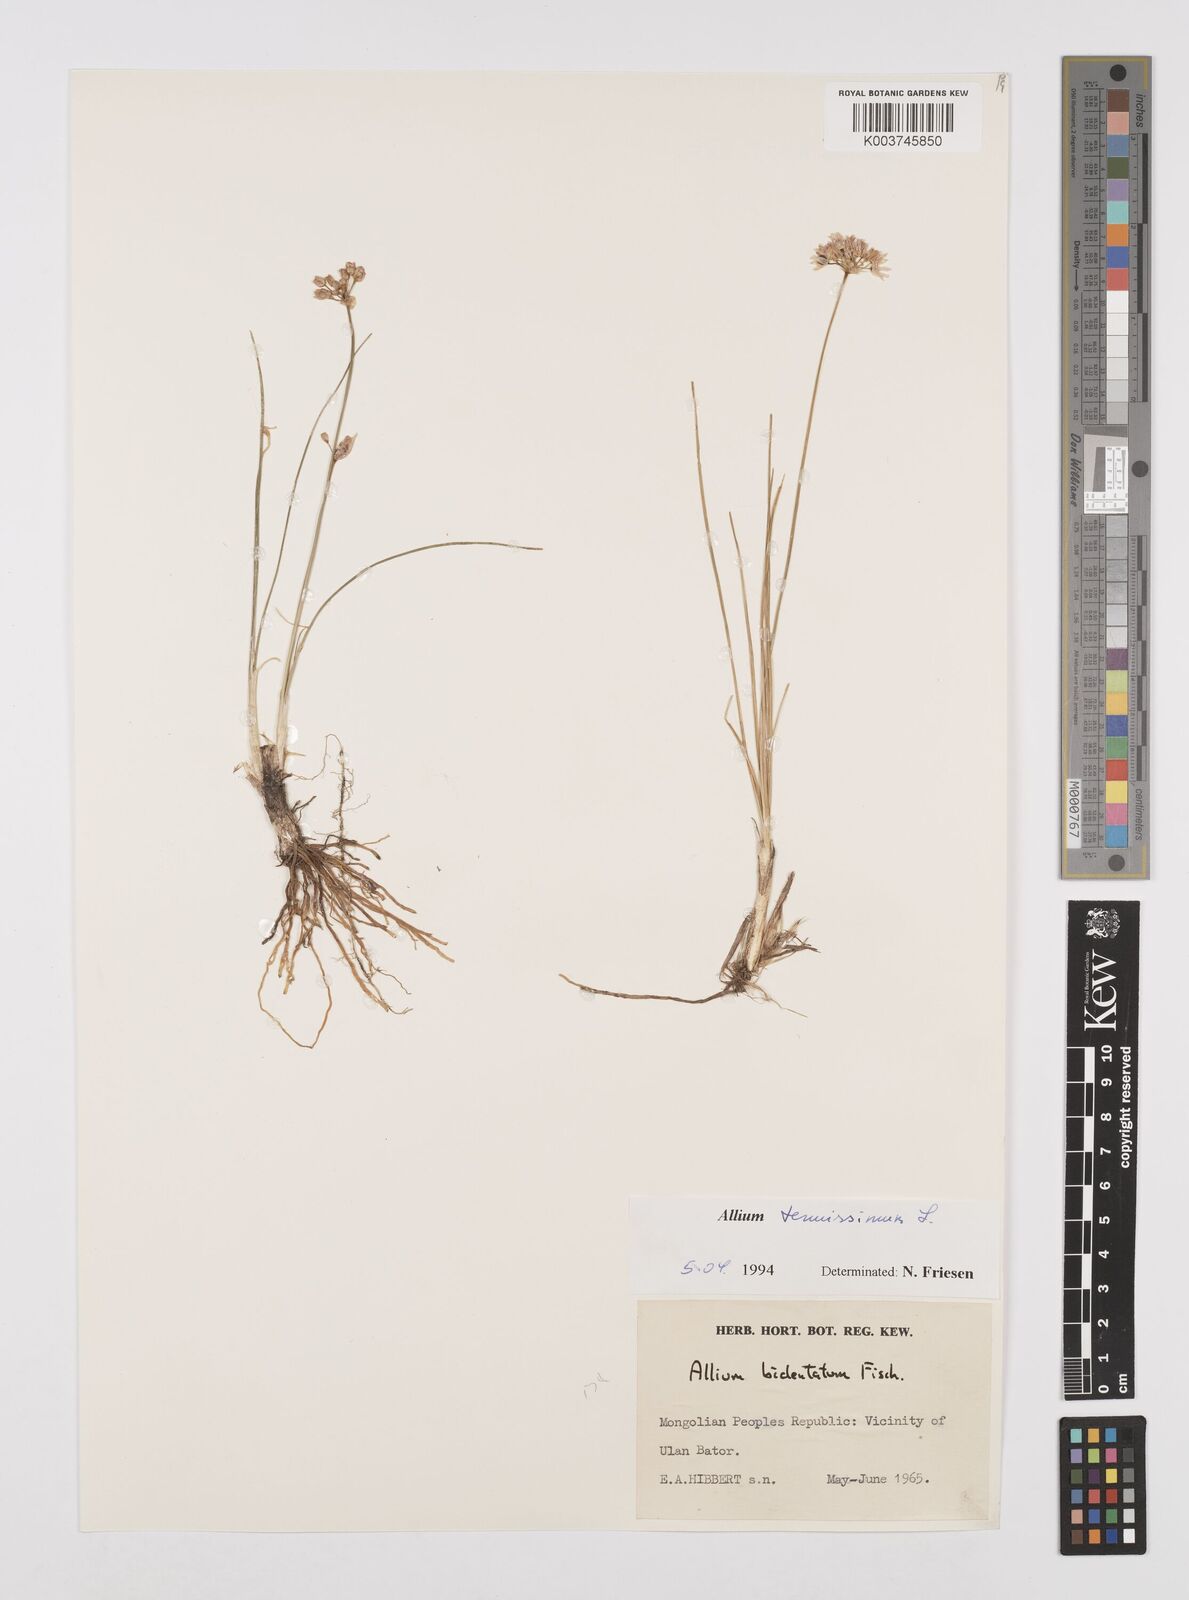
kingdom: Plantae
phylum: Tracheophyta
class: Liliopsida
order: Asparagales
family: Amaryllidaceae
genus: Allium
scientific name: Allium tenuissimum
